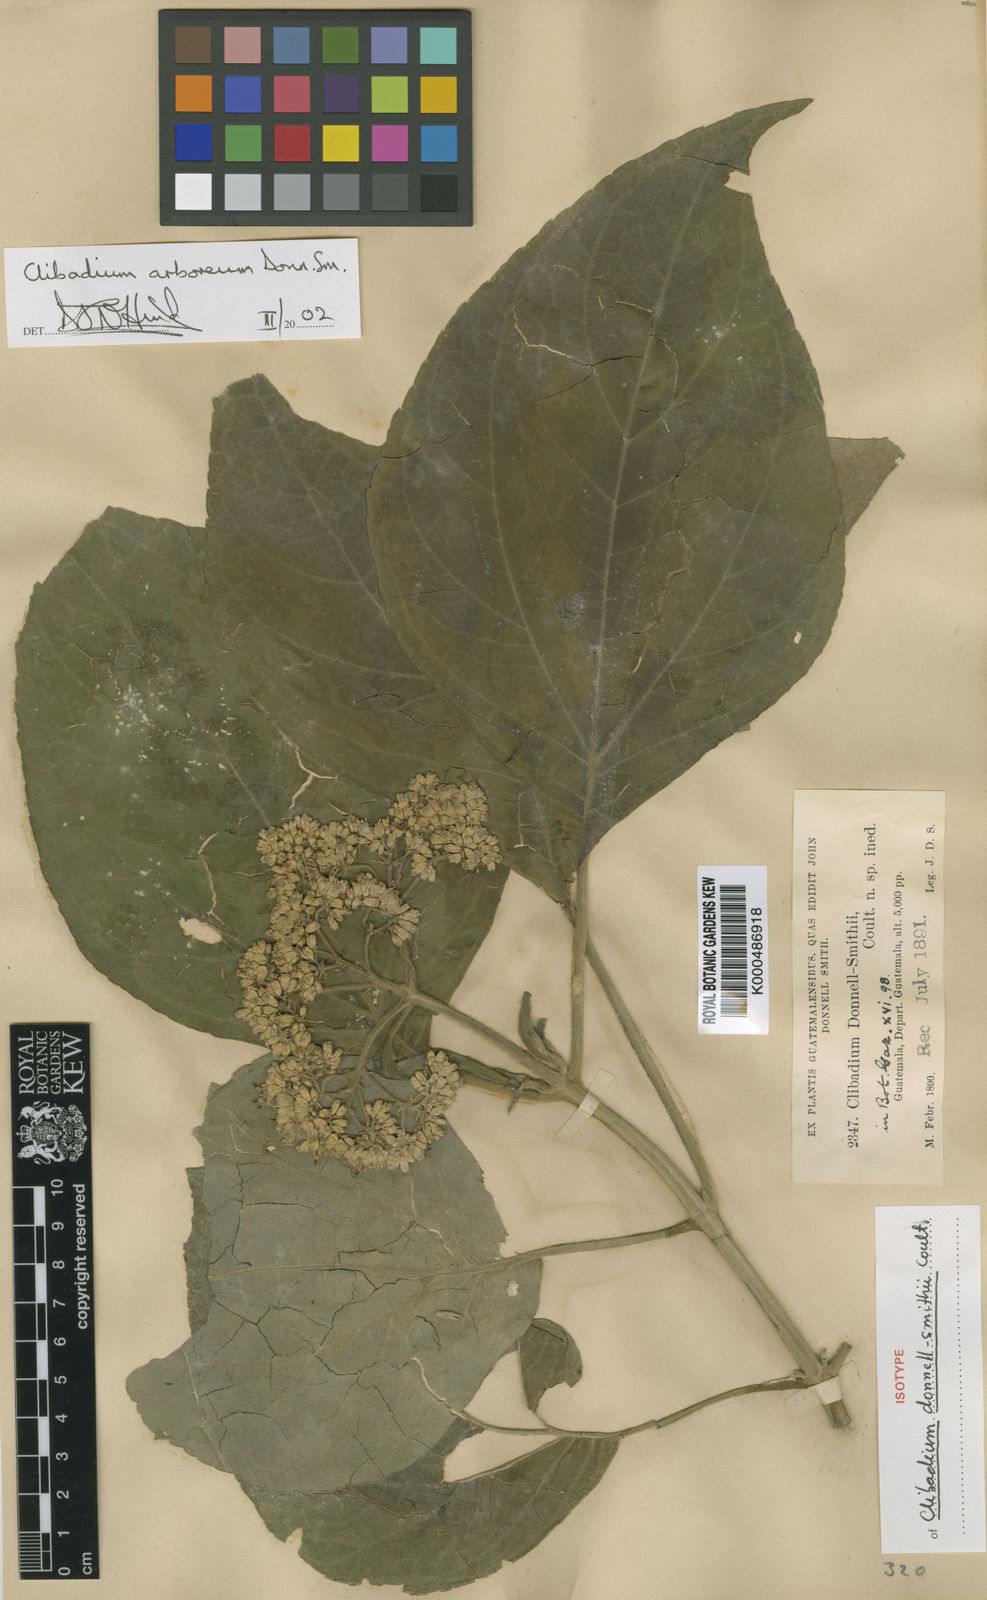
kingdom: Plantae
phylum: Tracheophyta
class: Magnoliopsida
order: Asterales
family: Asteraceae
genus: Clibadium
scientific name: Clibadium arboreum
